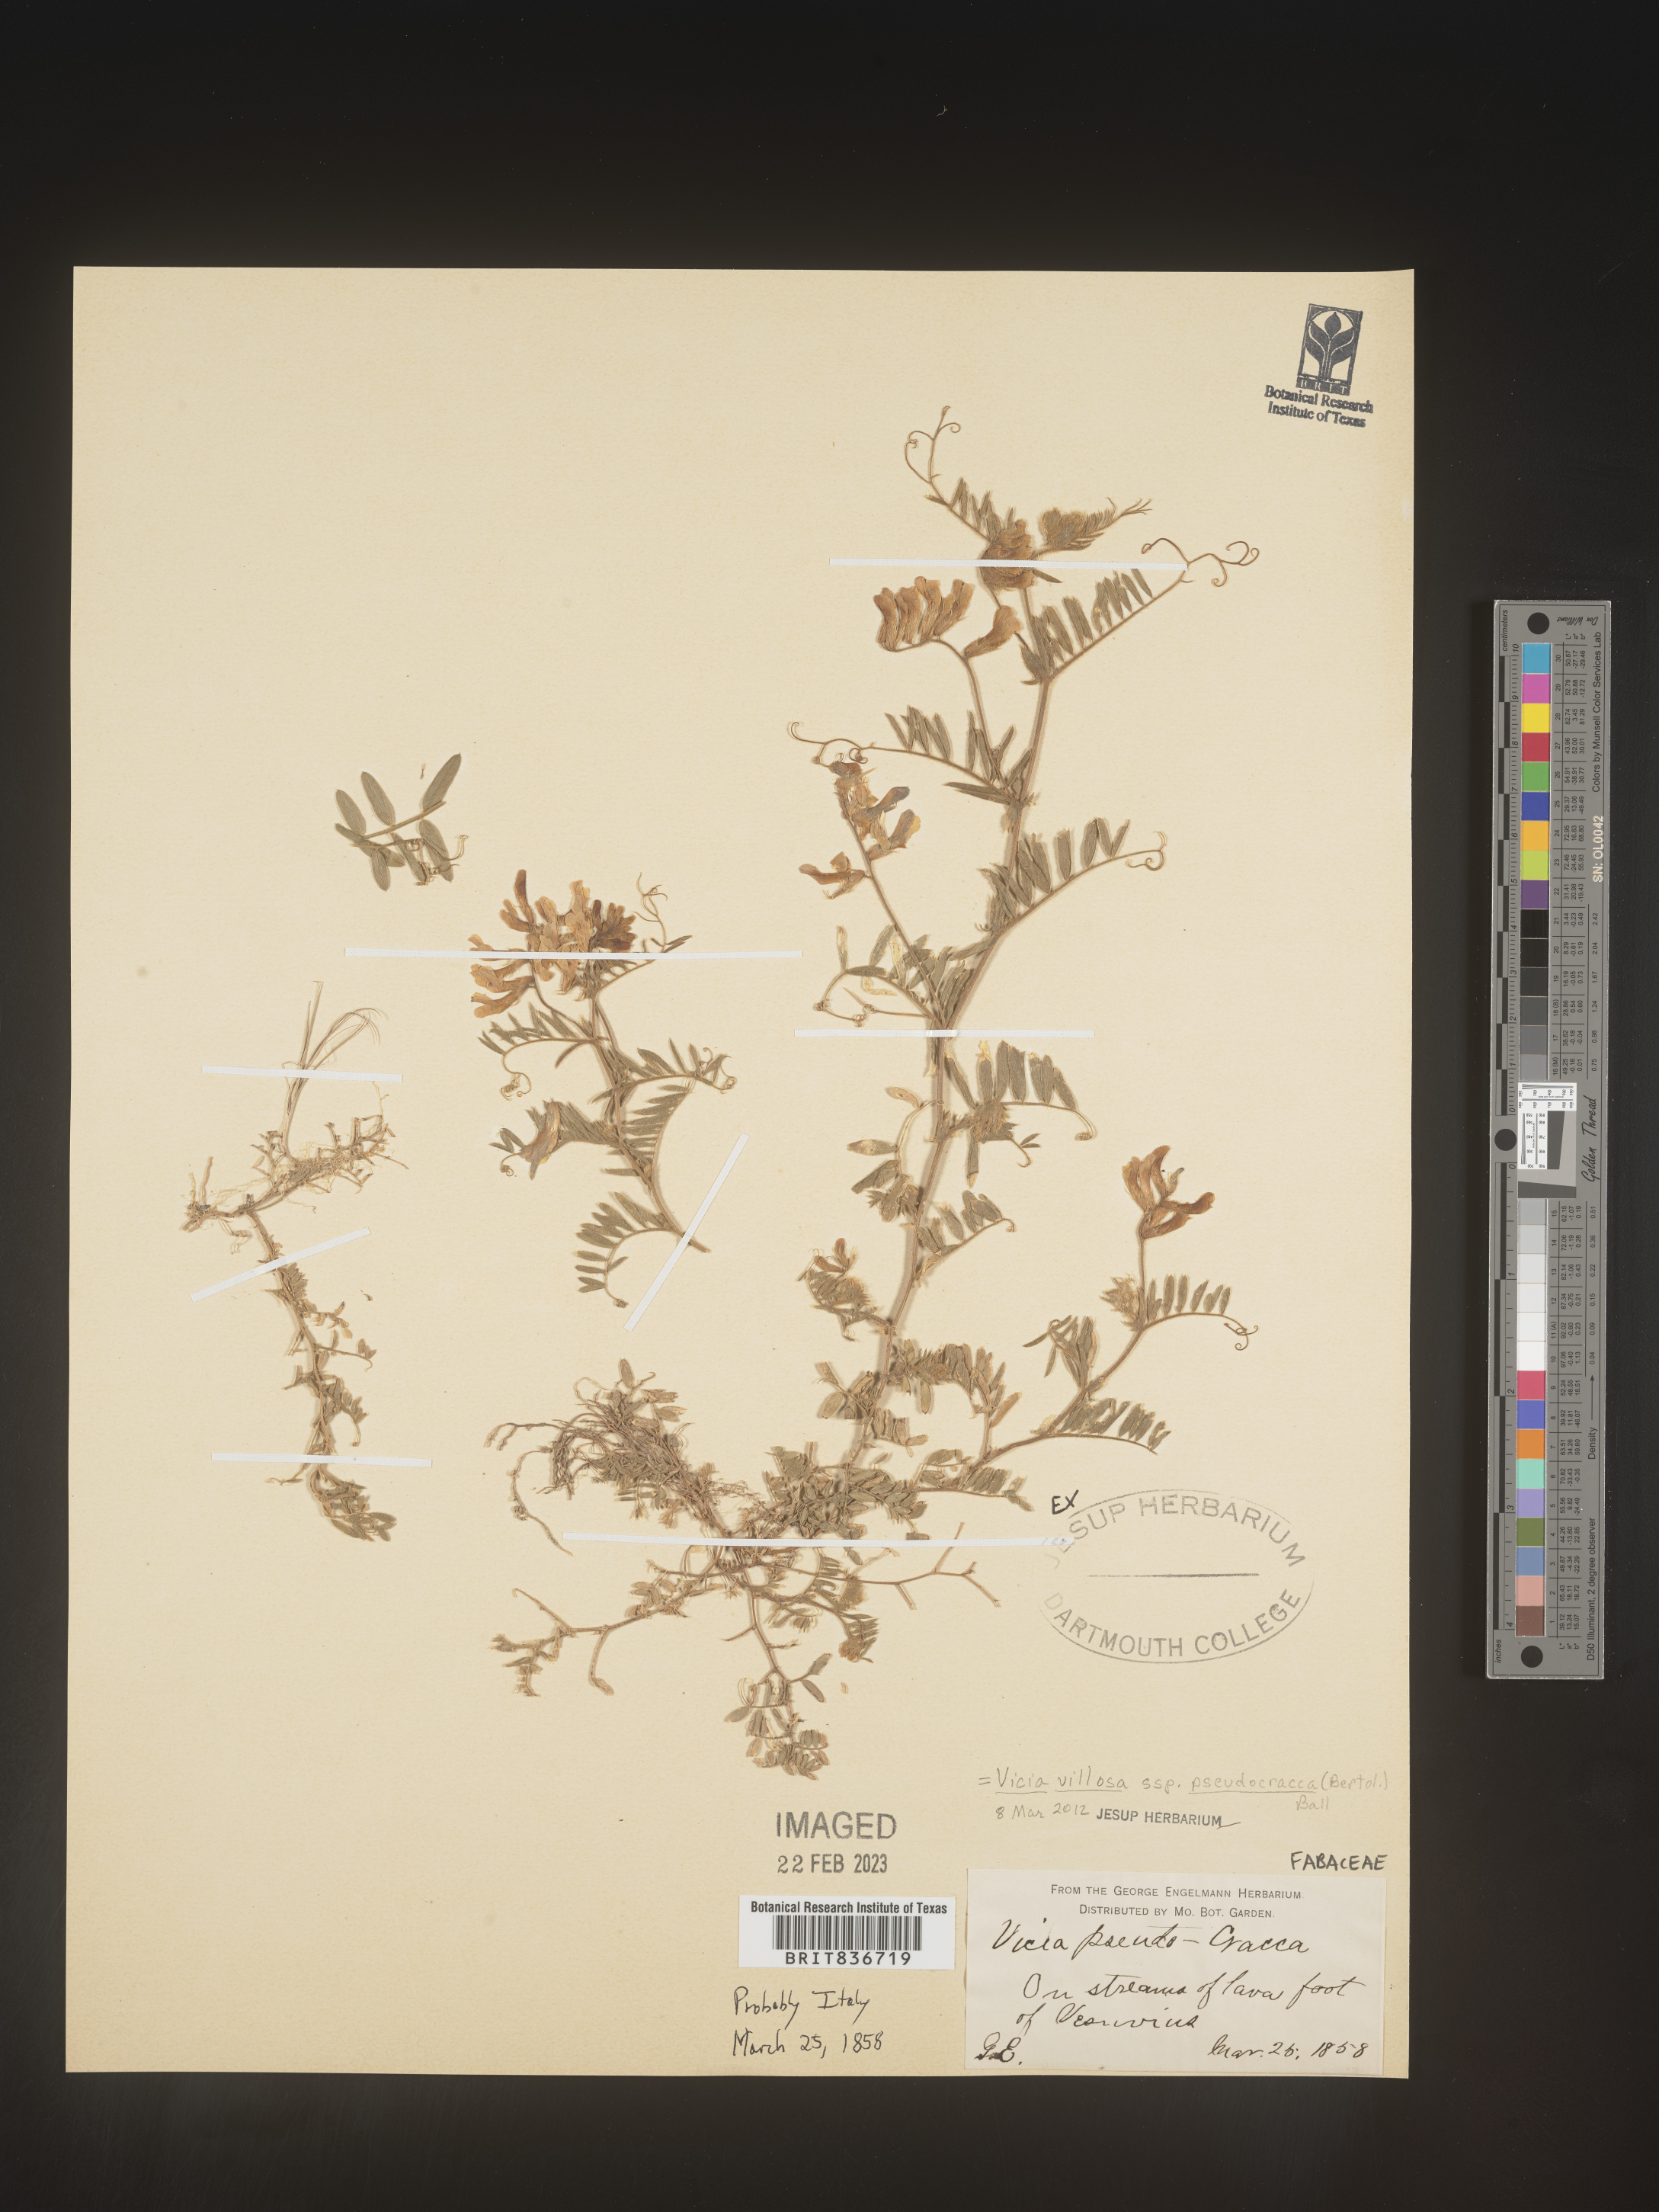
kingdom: Plantae
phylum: Tracheophyta
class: Magnoliopsida
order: Fabales
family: Fabaceae
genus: Vicia
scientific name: Vicia sylvatica
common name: Wood vetch
